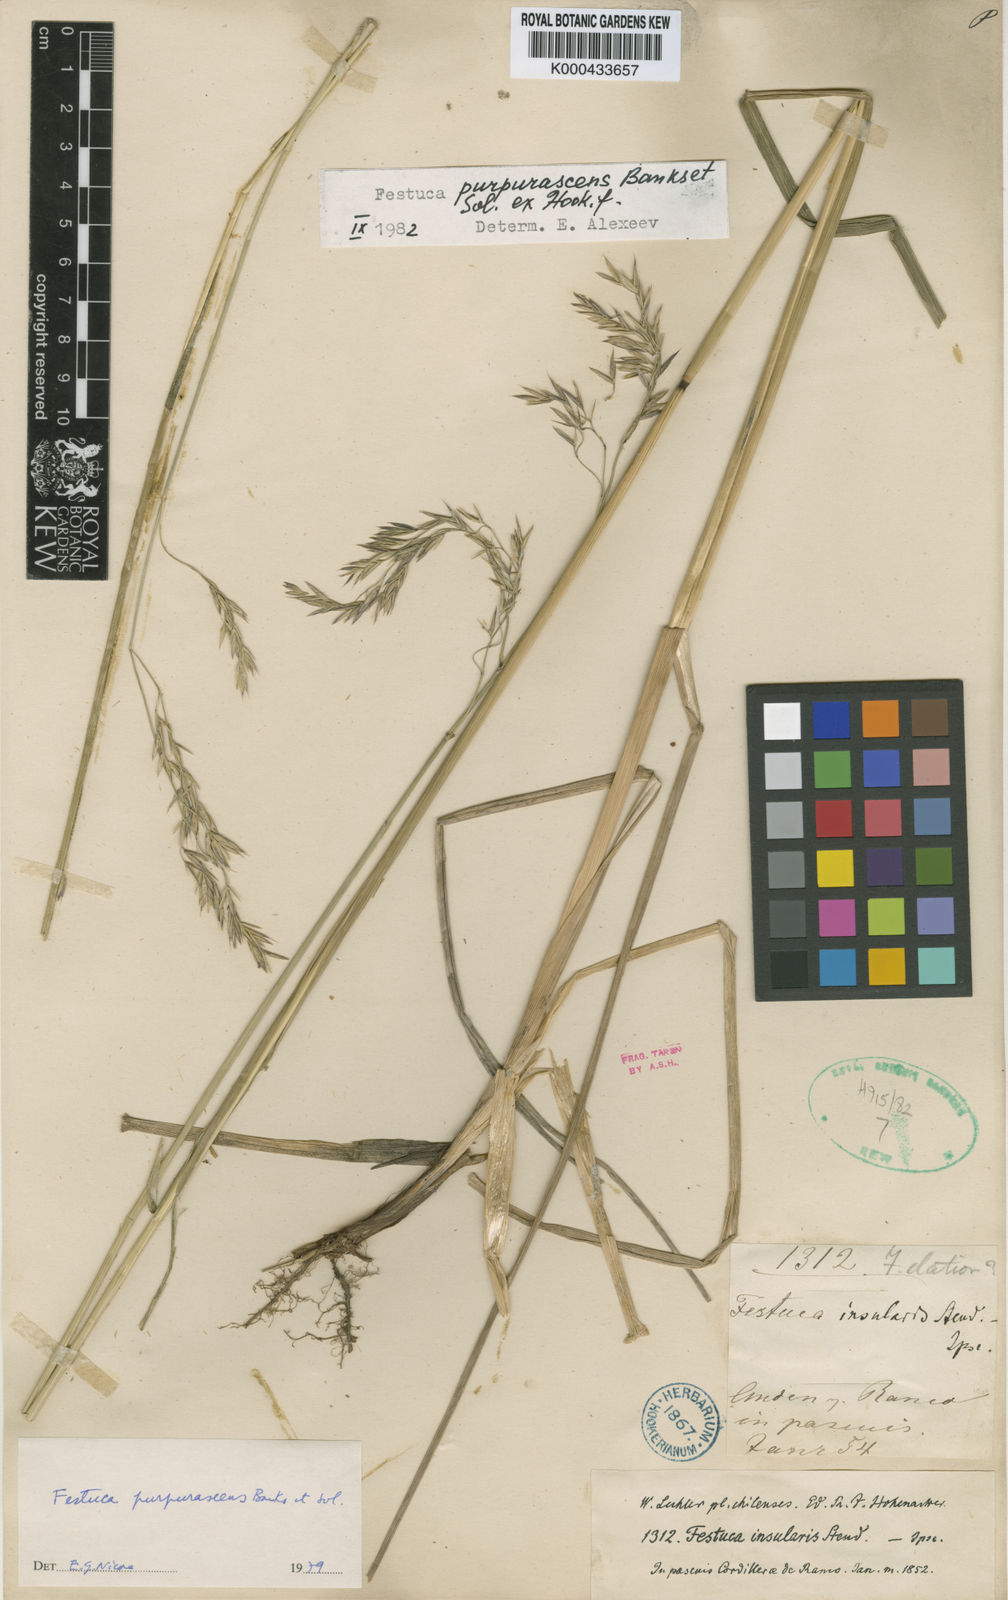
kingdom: Plantae
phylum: Tracheophyta
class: Liliopsida
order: Poales
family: Poaceae
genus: Festuca
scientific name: Festuca purpurascens
